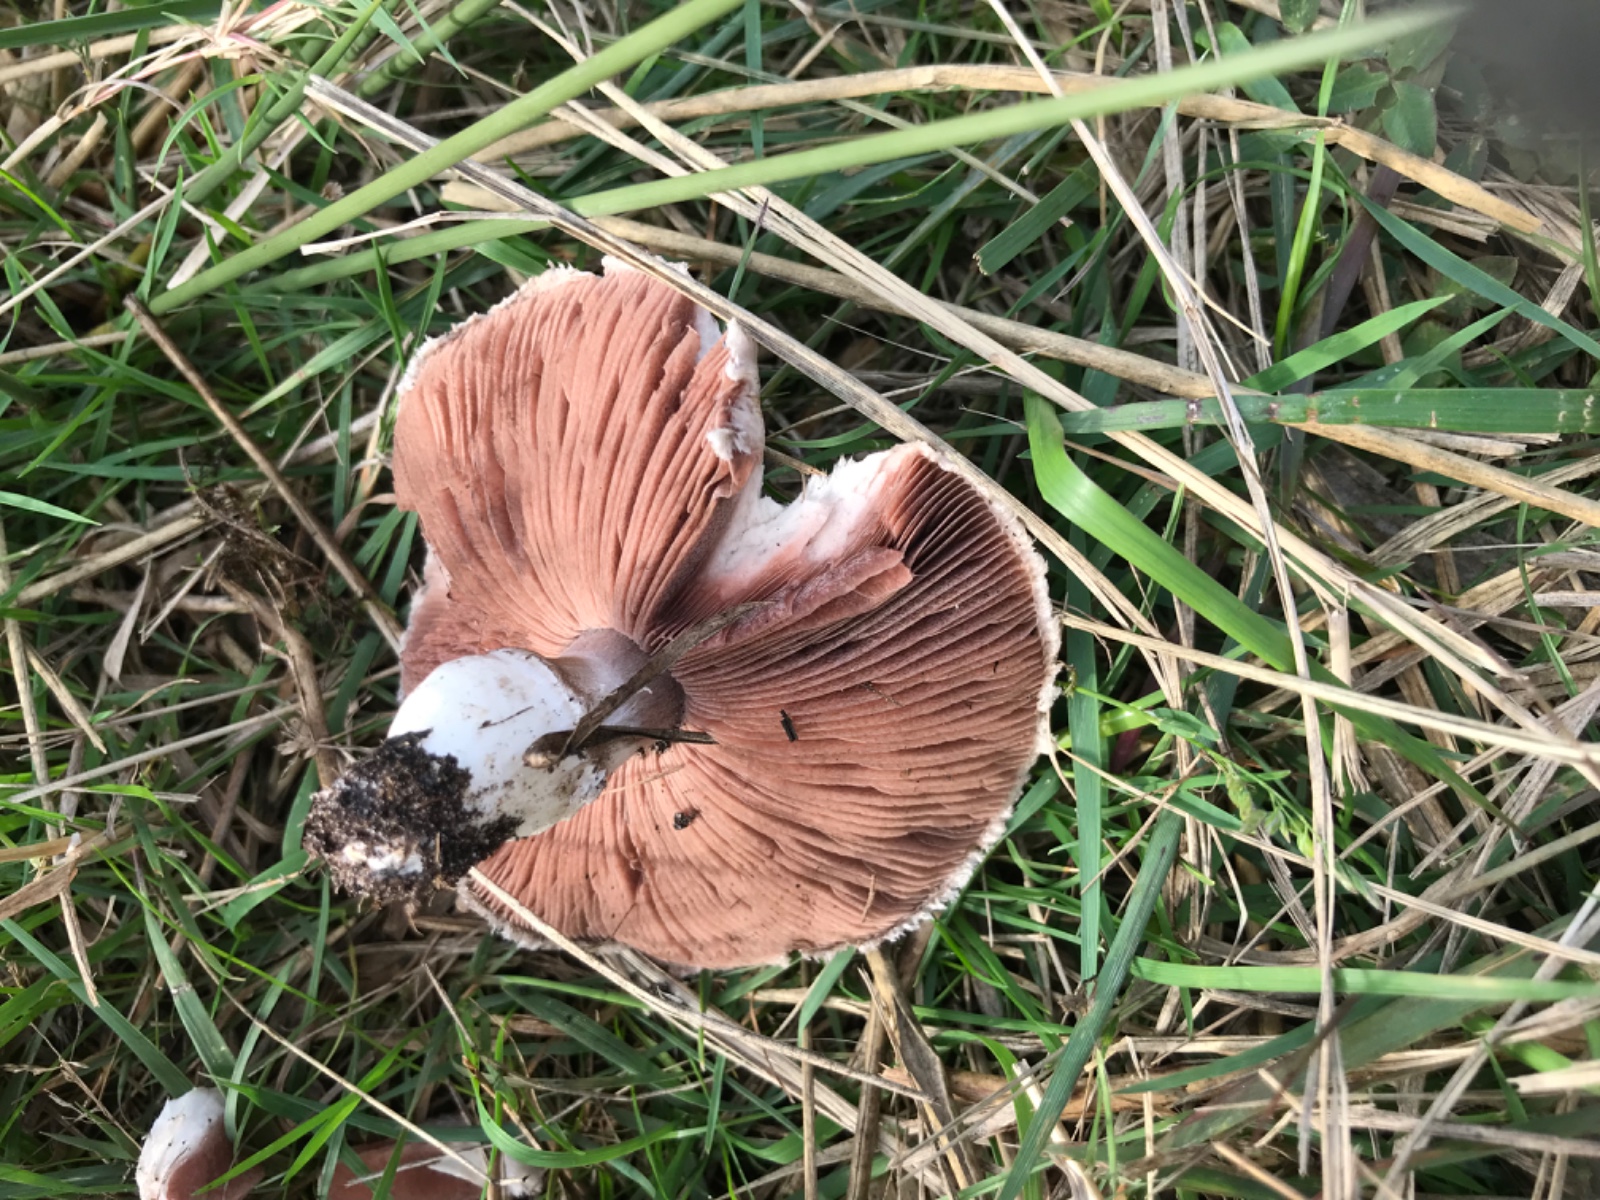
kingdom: Fungi
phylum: Basidiomycota
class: Agaricomycetes
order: Agaricales
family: Agaricaceae
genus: Agaricus
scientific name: Agaricus campestris
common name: mark-champignon
